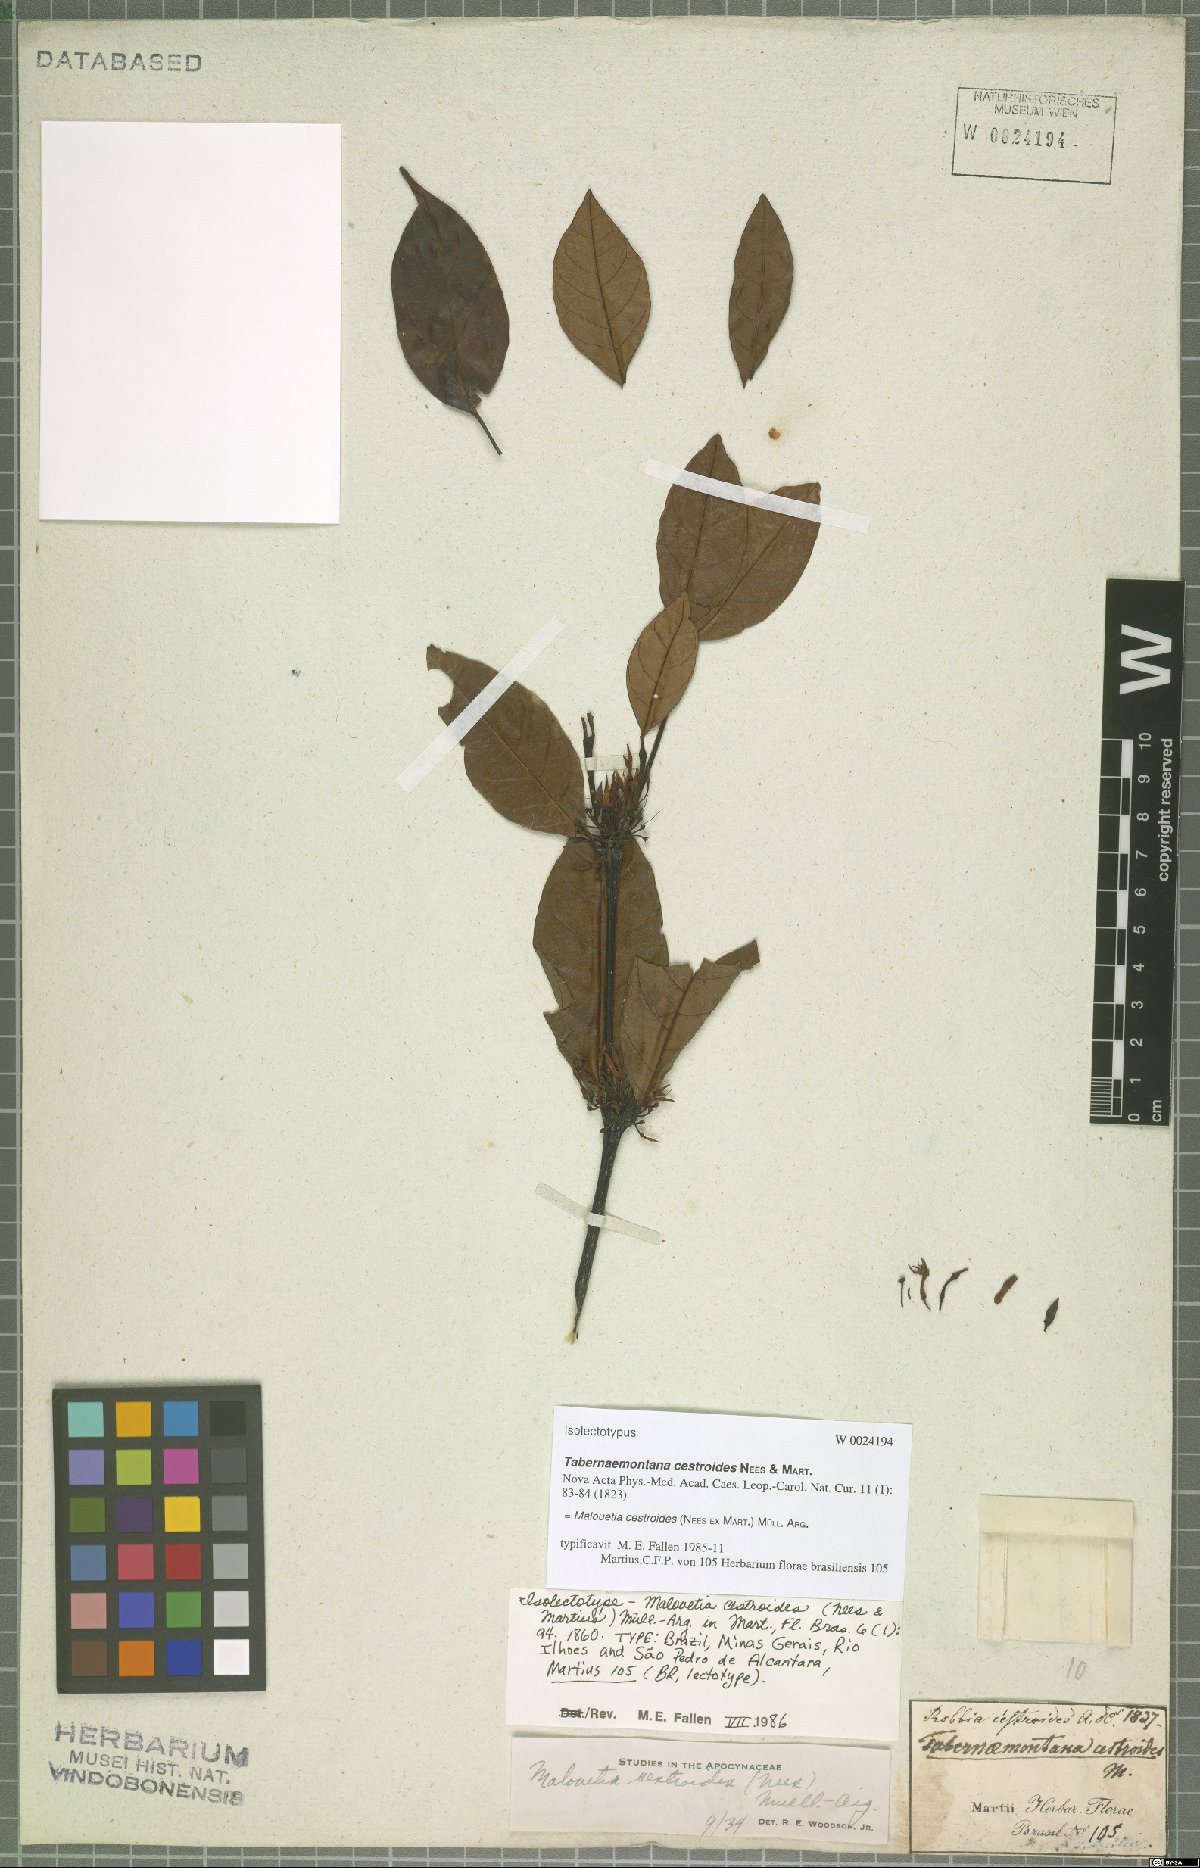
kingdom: Plantae
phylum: Tracheophyta
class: Magnoliopsida
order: Gentianales
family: Apocynaceae
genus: Malouetia
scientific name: Malouetia cestroides
